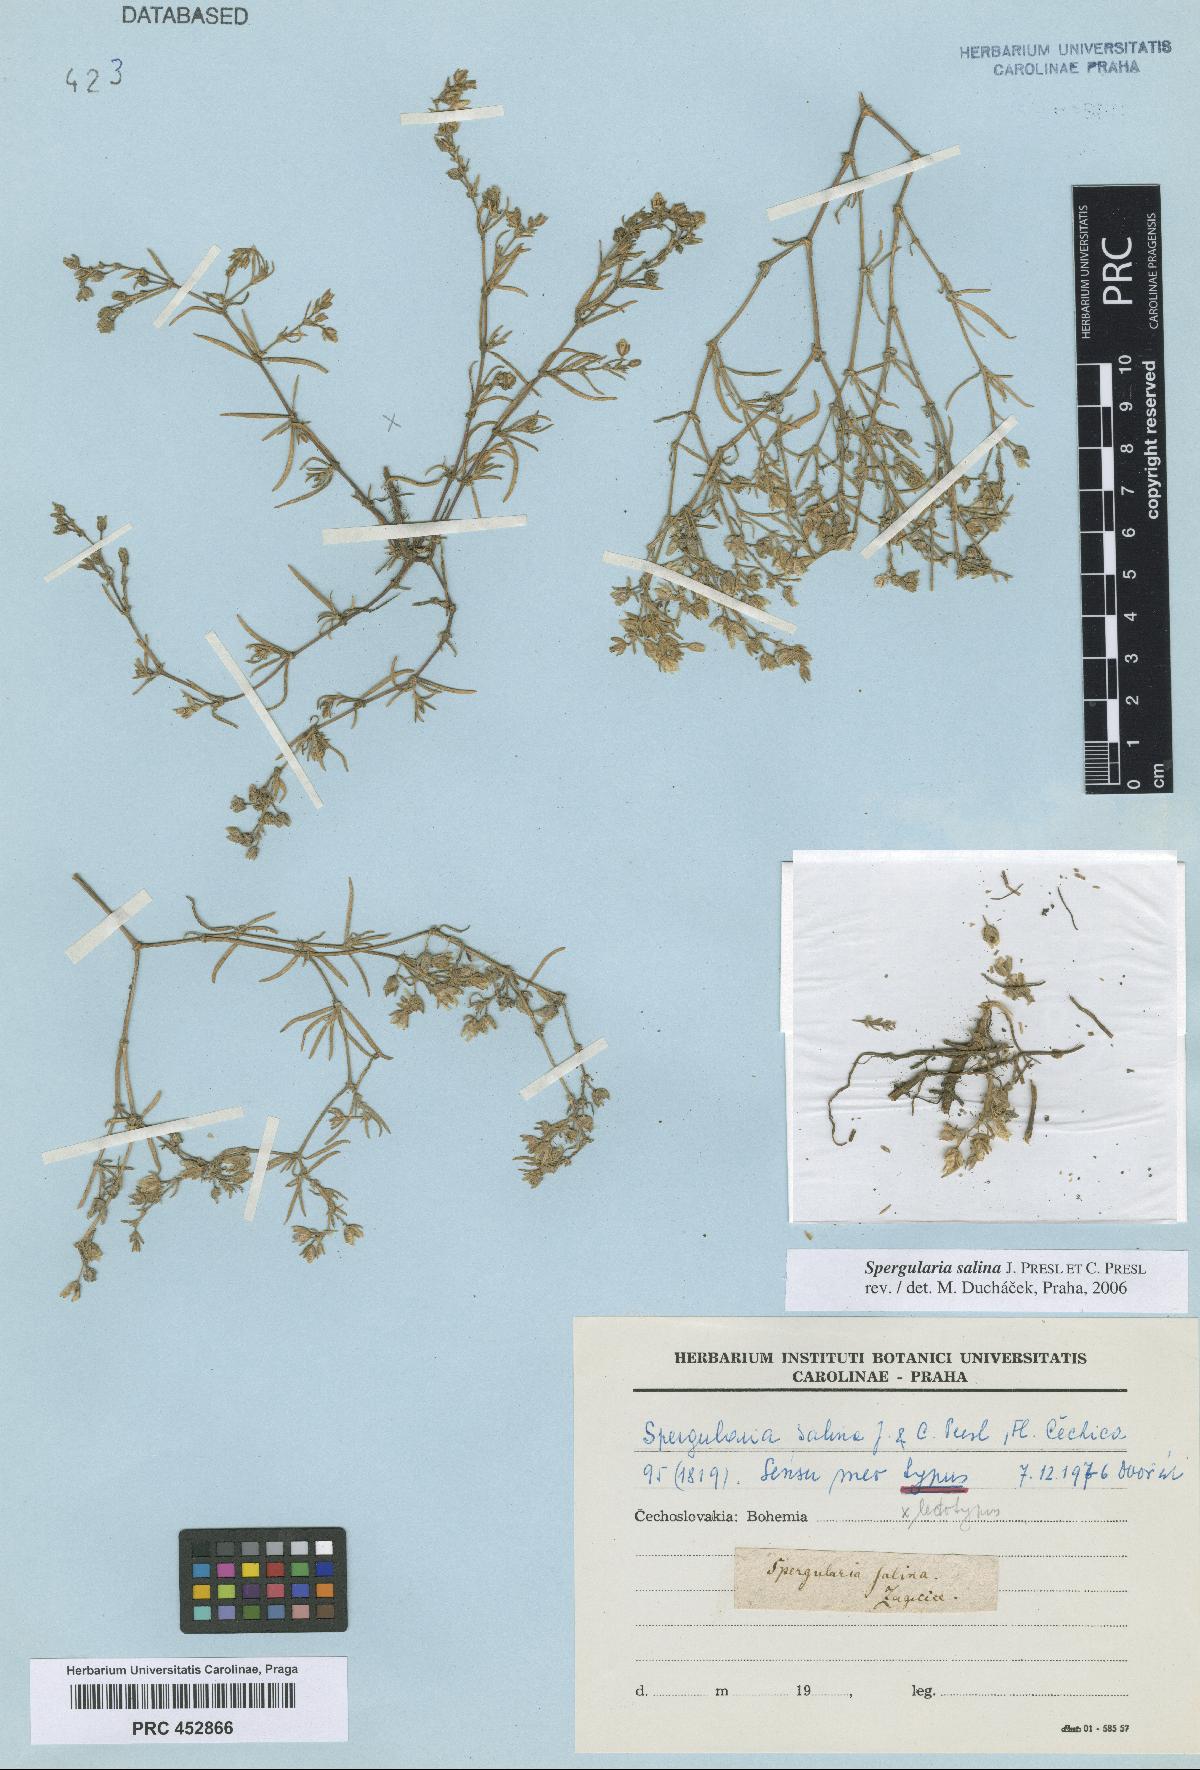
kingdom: Plantae
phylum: Tracheophyta
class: Magnoliopsida
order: Caryophyllales
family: Caryophyllaceae
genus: Spergularia
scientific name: Spergularia marina
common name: Lesser sea-spurrey
